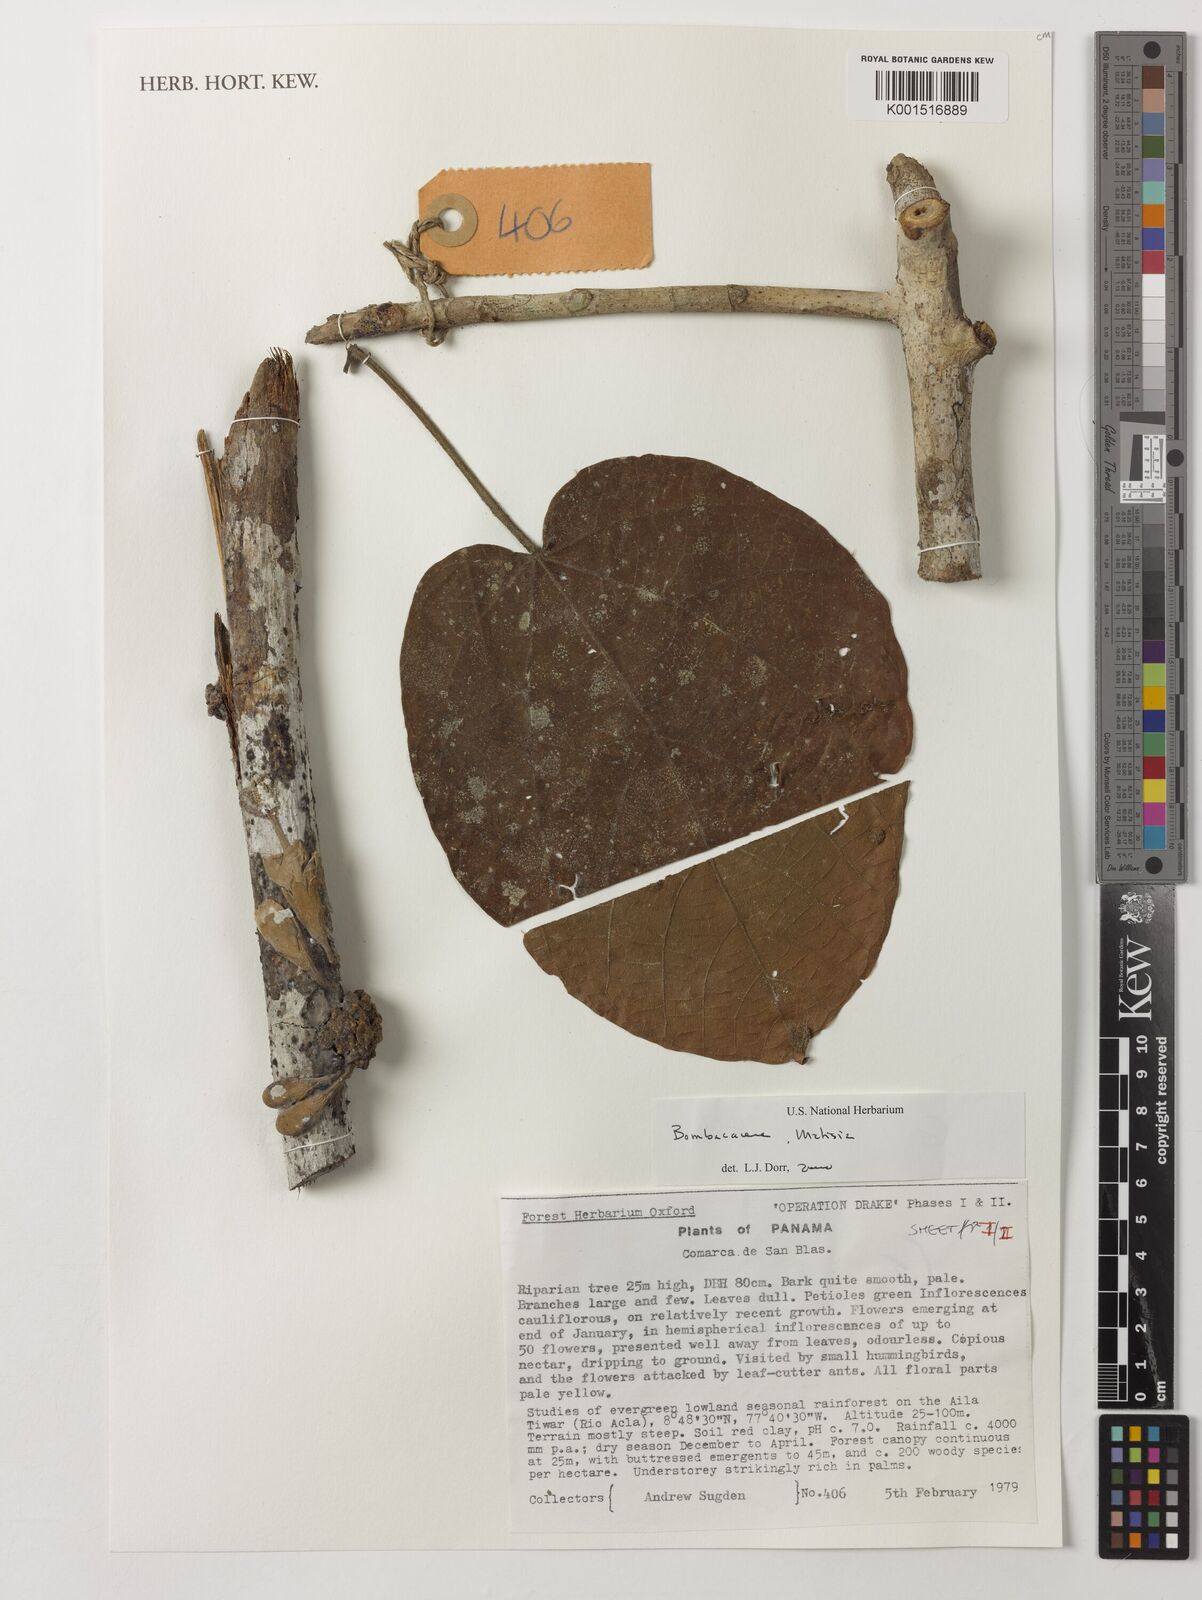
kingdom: Plantae
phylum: Tracheophyta
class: Magnoliopsida
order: Malvales
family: Malvaceae
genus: Matisia
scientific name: Matisia
